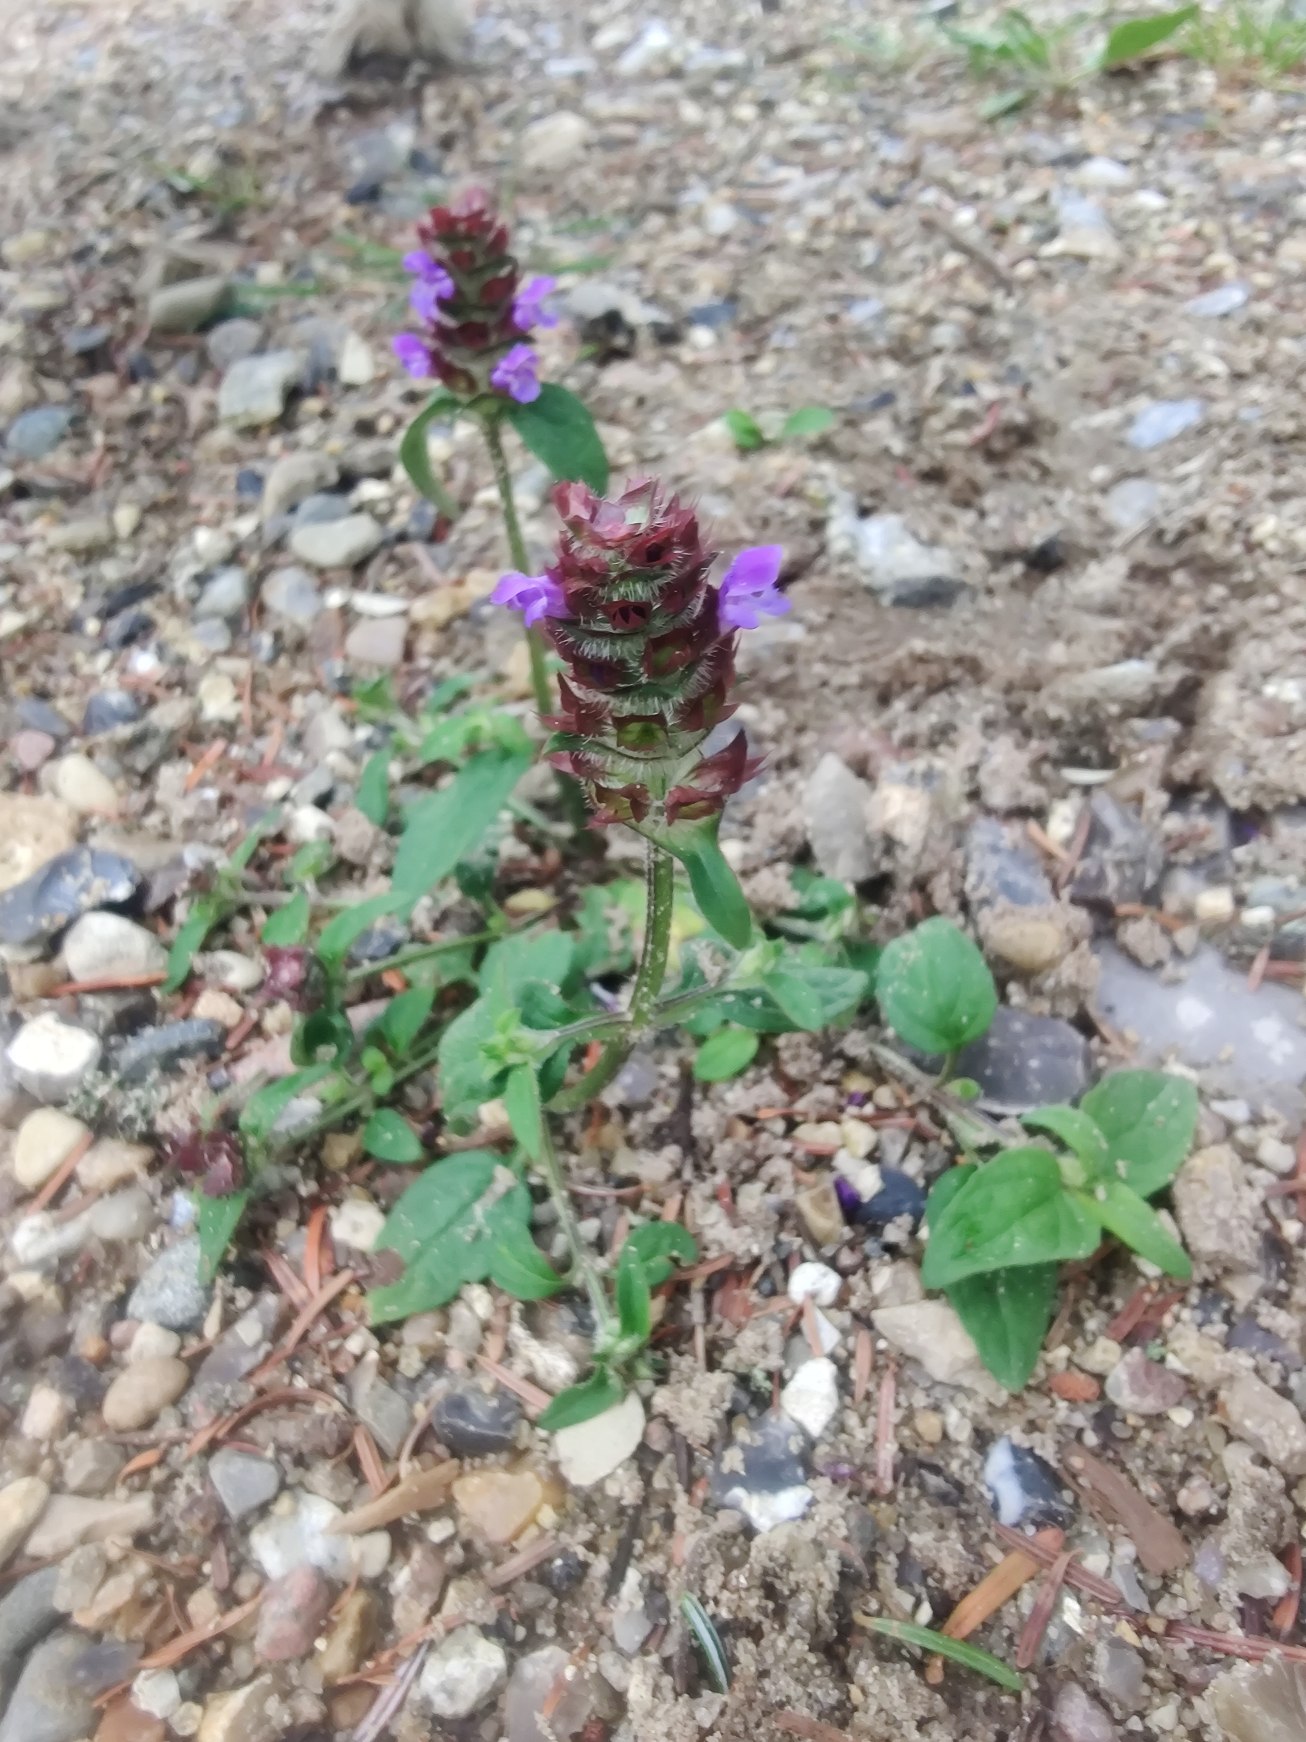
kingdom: Plantae
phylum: Tracheophyta
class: Magnoliopsida
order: Lamiales
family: Lamiaceae
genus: Prunella
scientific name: Prunella vulgaris
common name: Almindelig brunelle
